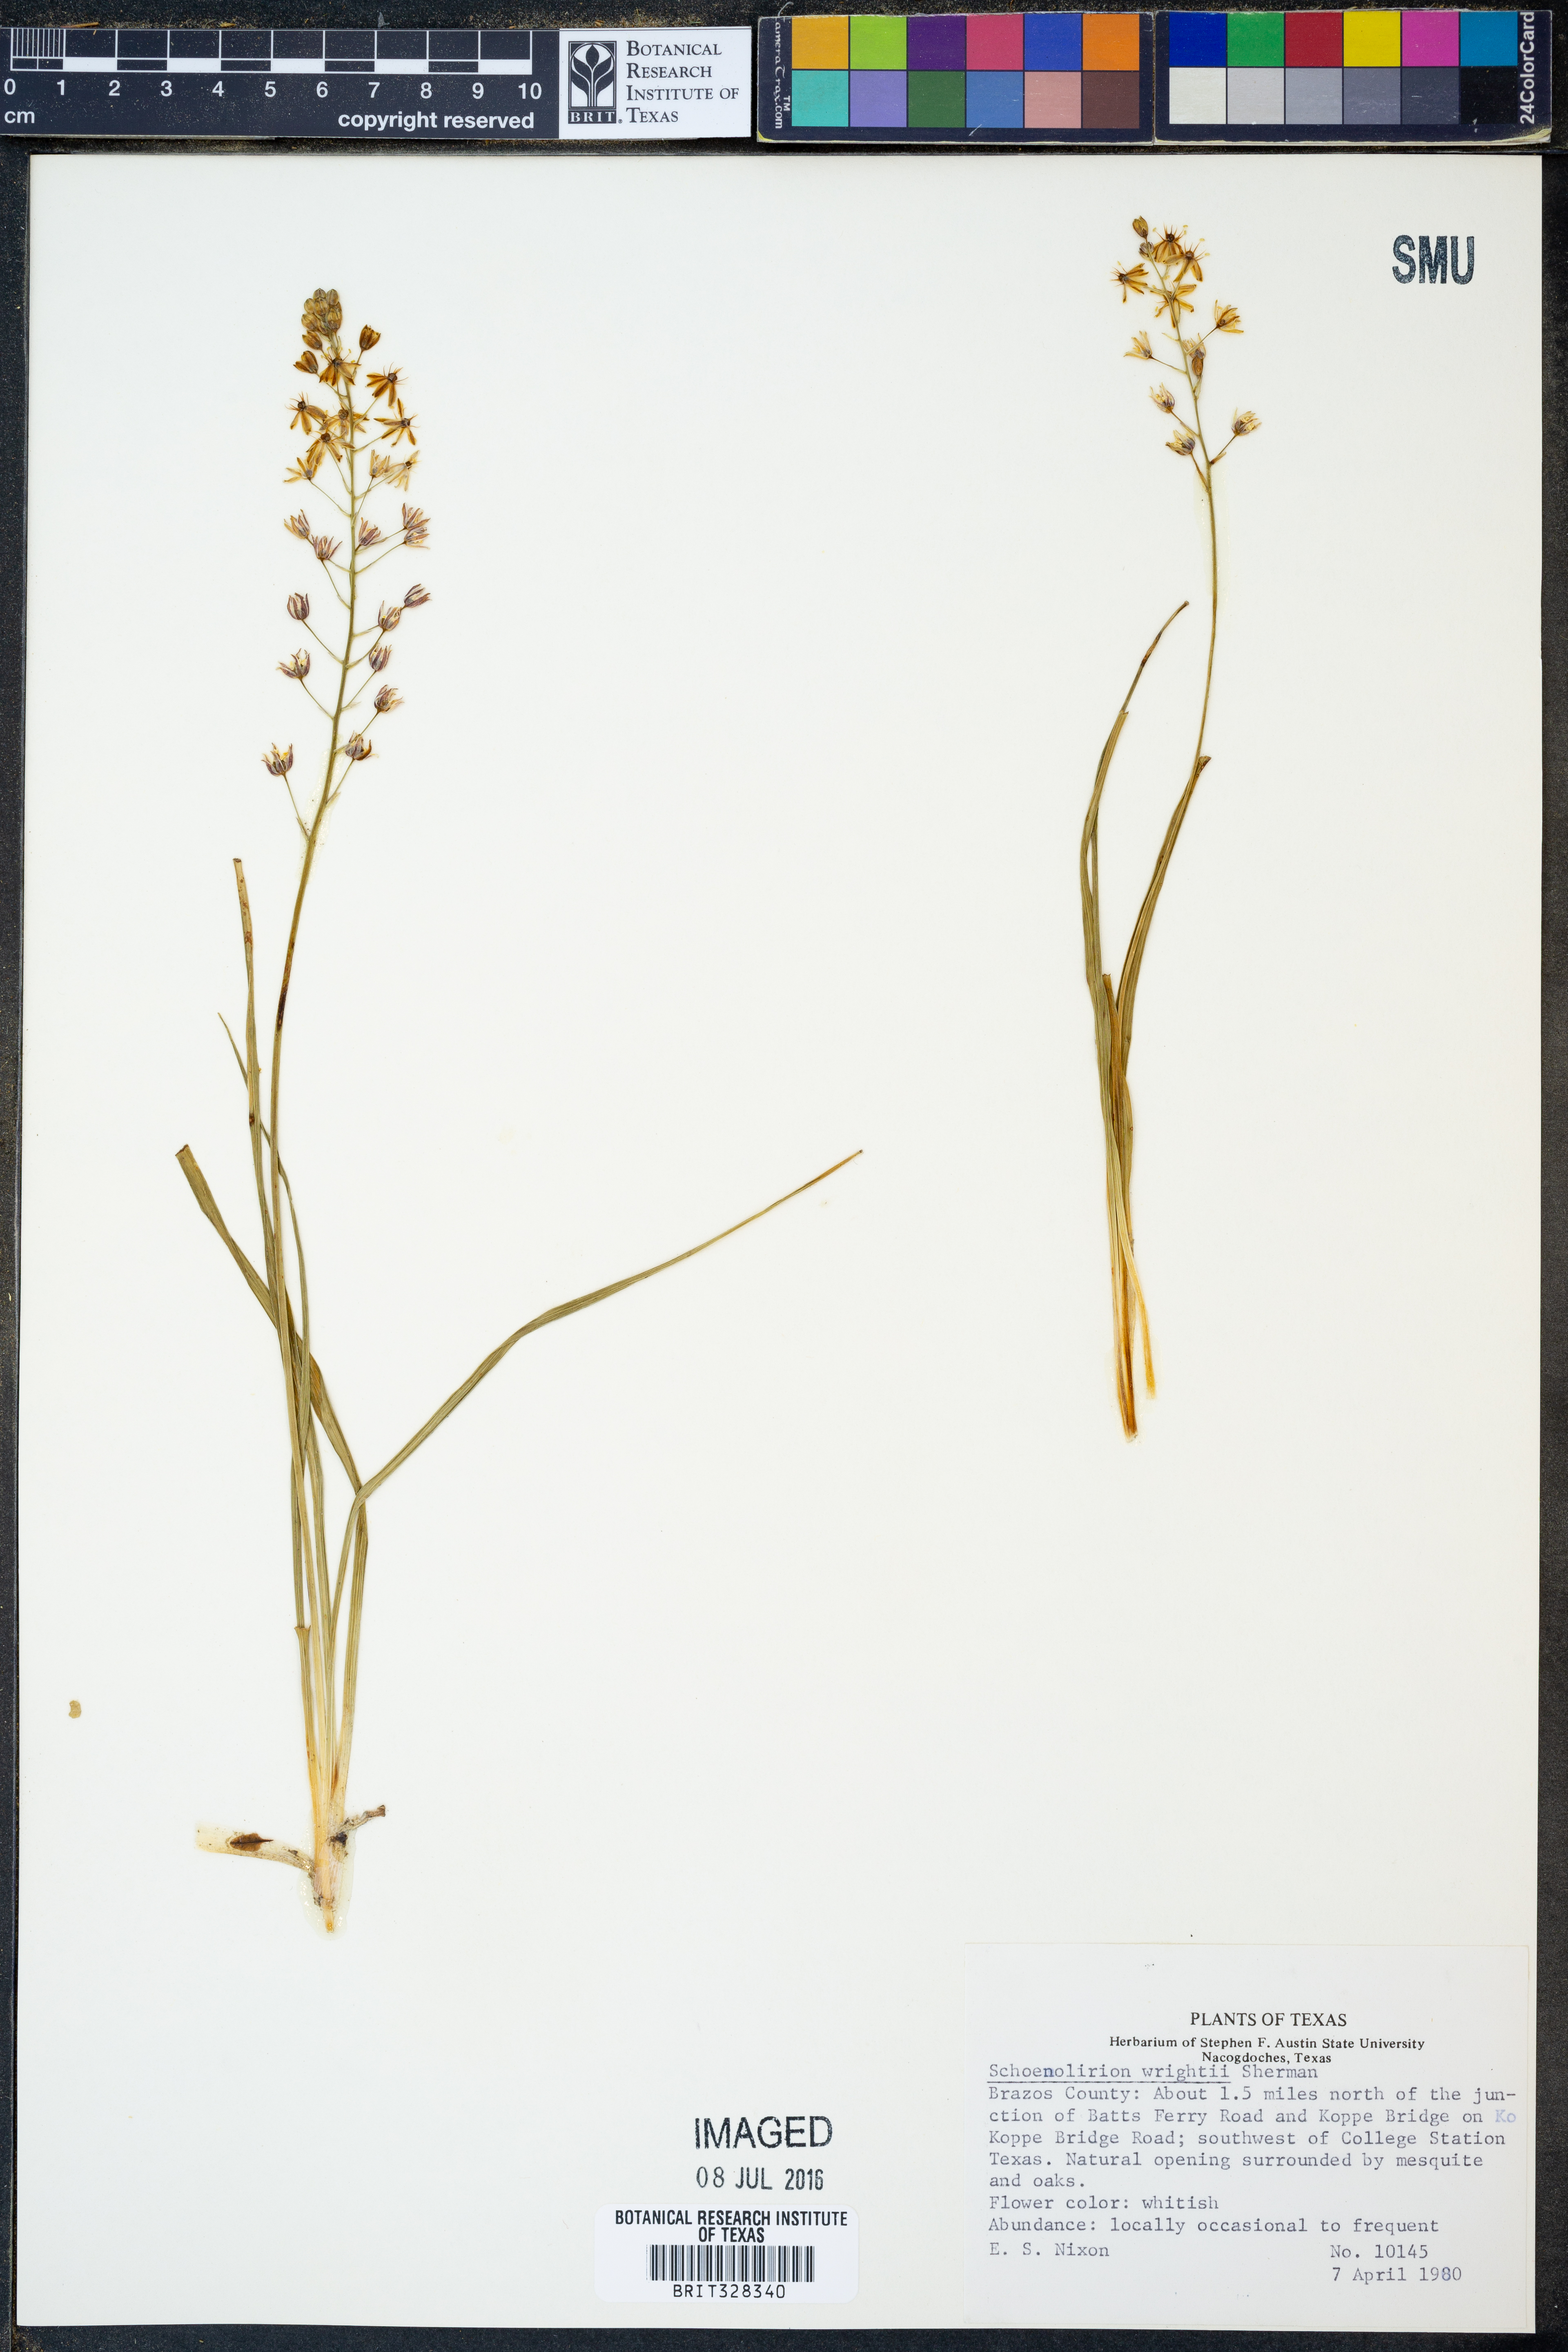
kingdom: Plantae
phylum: Tracheophyta
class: Liliopsida
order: Asparagales
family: Asparagaceae
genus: Schoenolirion
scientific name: Schoenolirion wrightii
